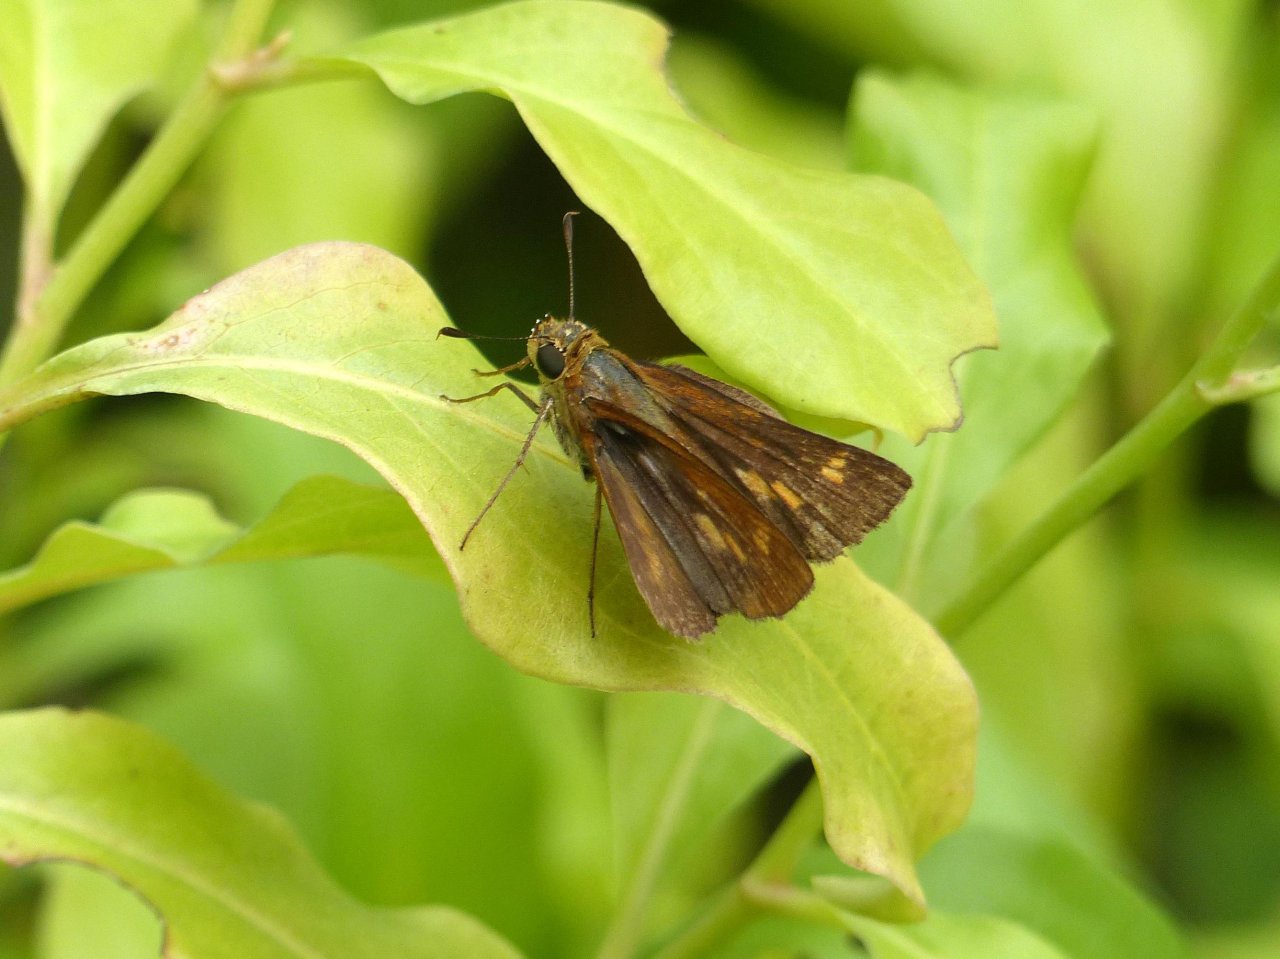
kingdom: Animalia
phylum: Arthropoda
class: Insecta
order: Lepidoptera
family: Hesperiidae
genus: Wallengrenia
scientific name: Wallengrenia otho
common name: Southern Broken-Dash
